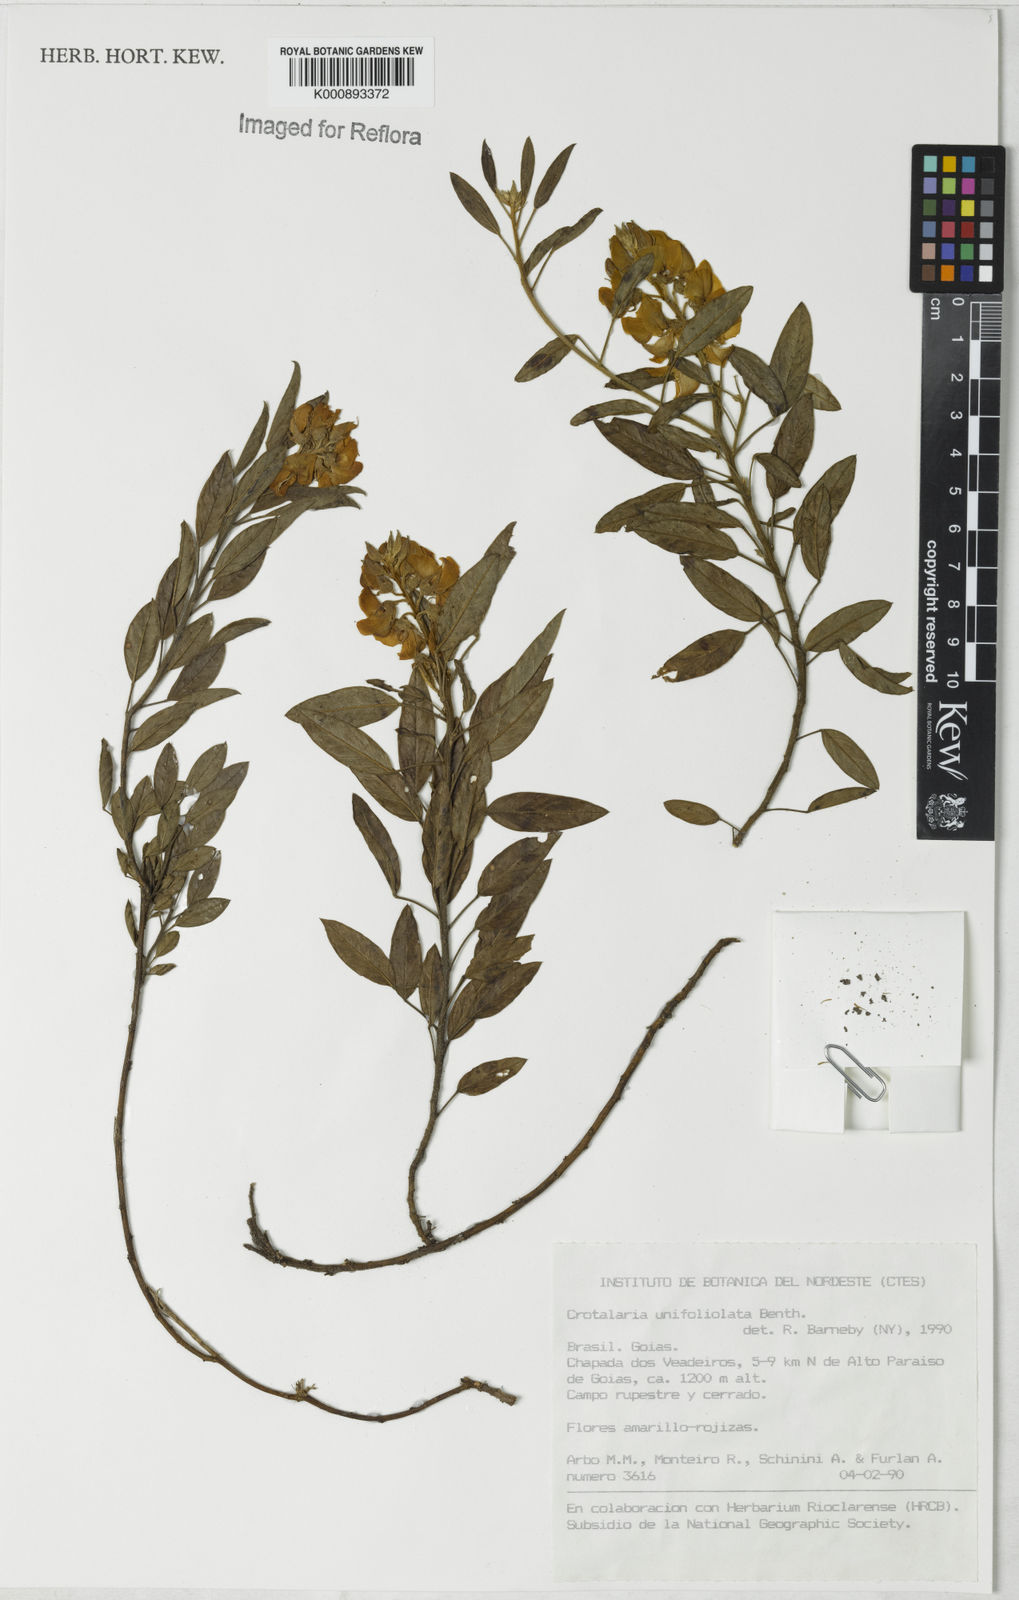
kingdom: Plantae
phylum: Tracheophyta
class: Magnoliopsida
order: Fabales
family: Fabaceae
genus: Crotalaria
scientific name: Crotalaria unifoliolata
